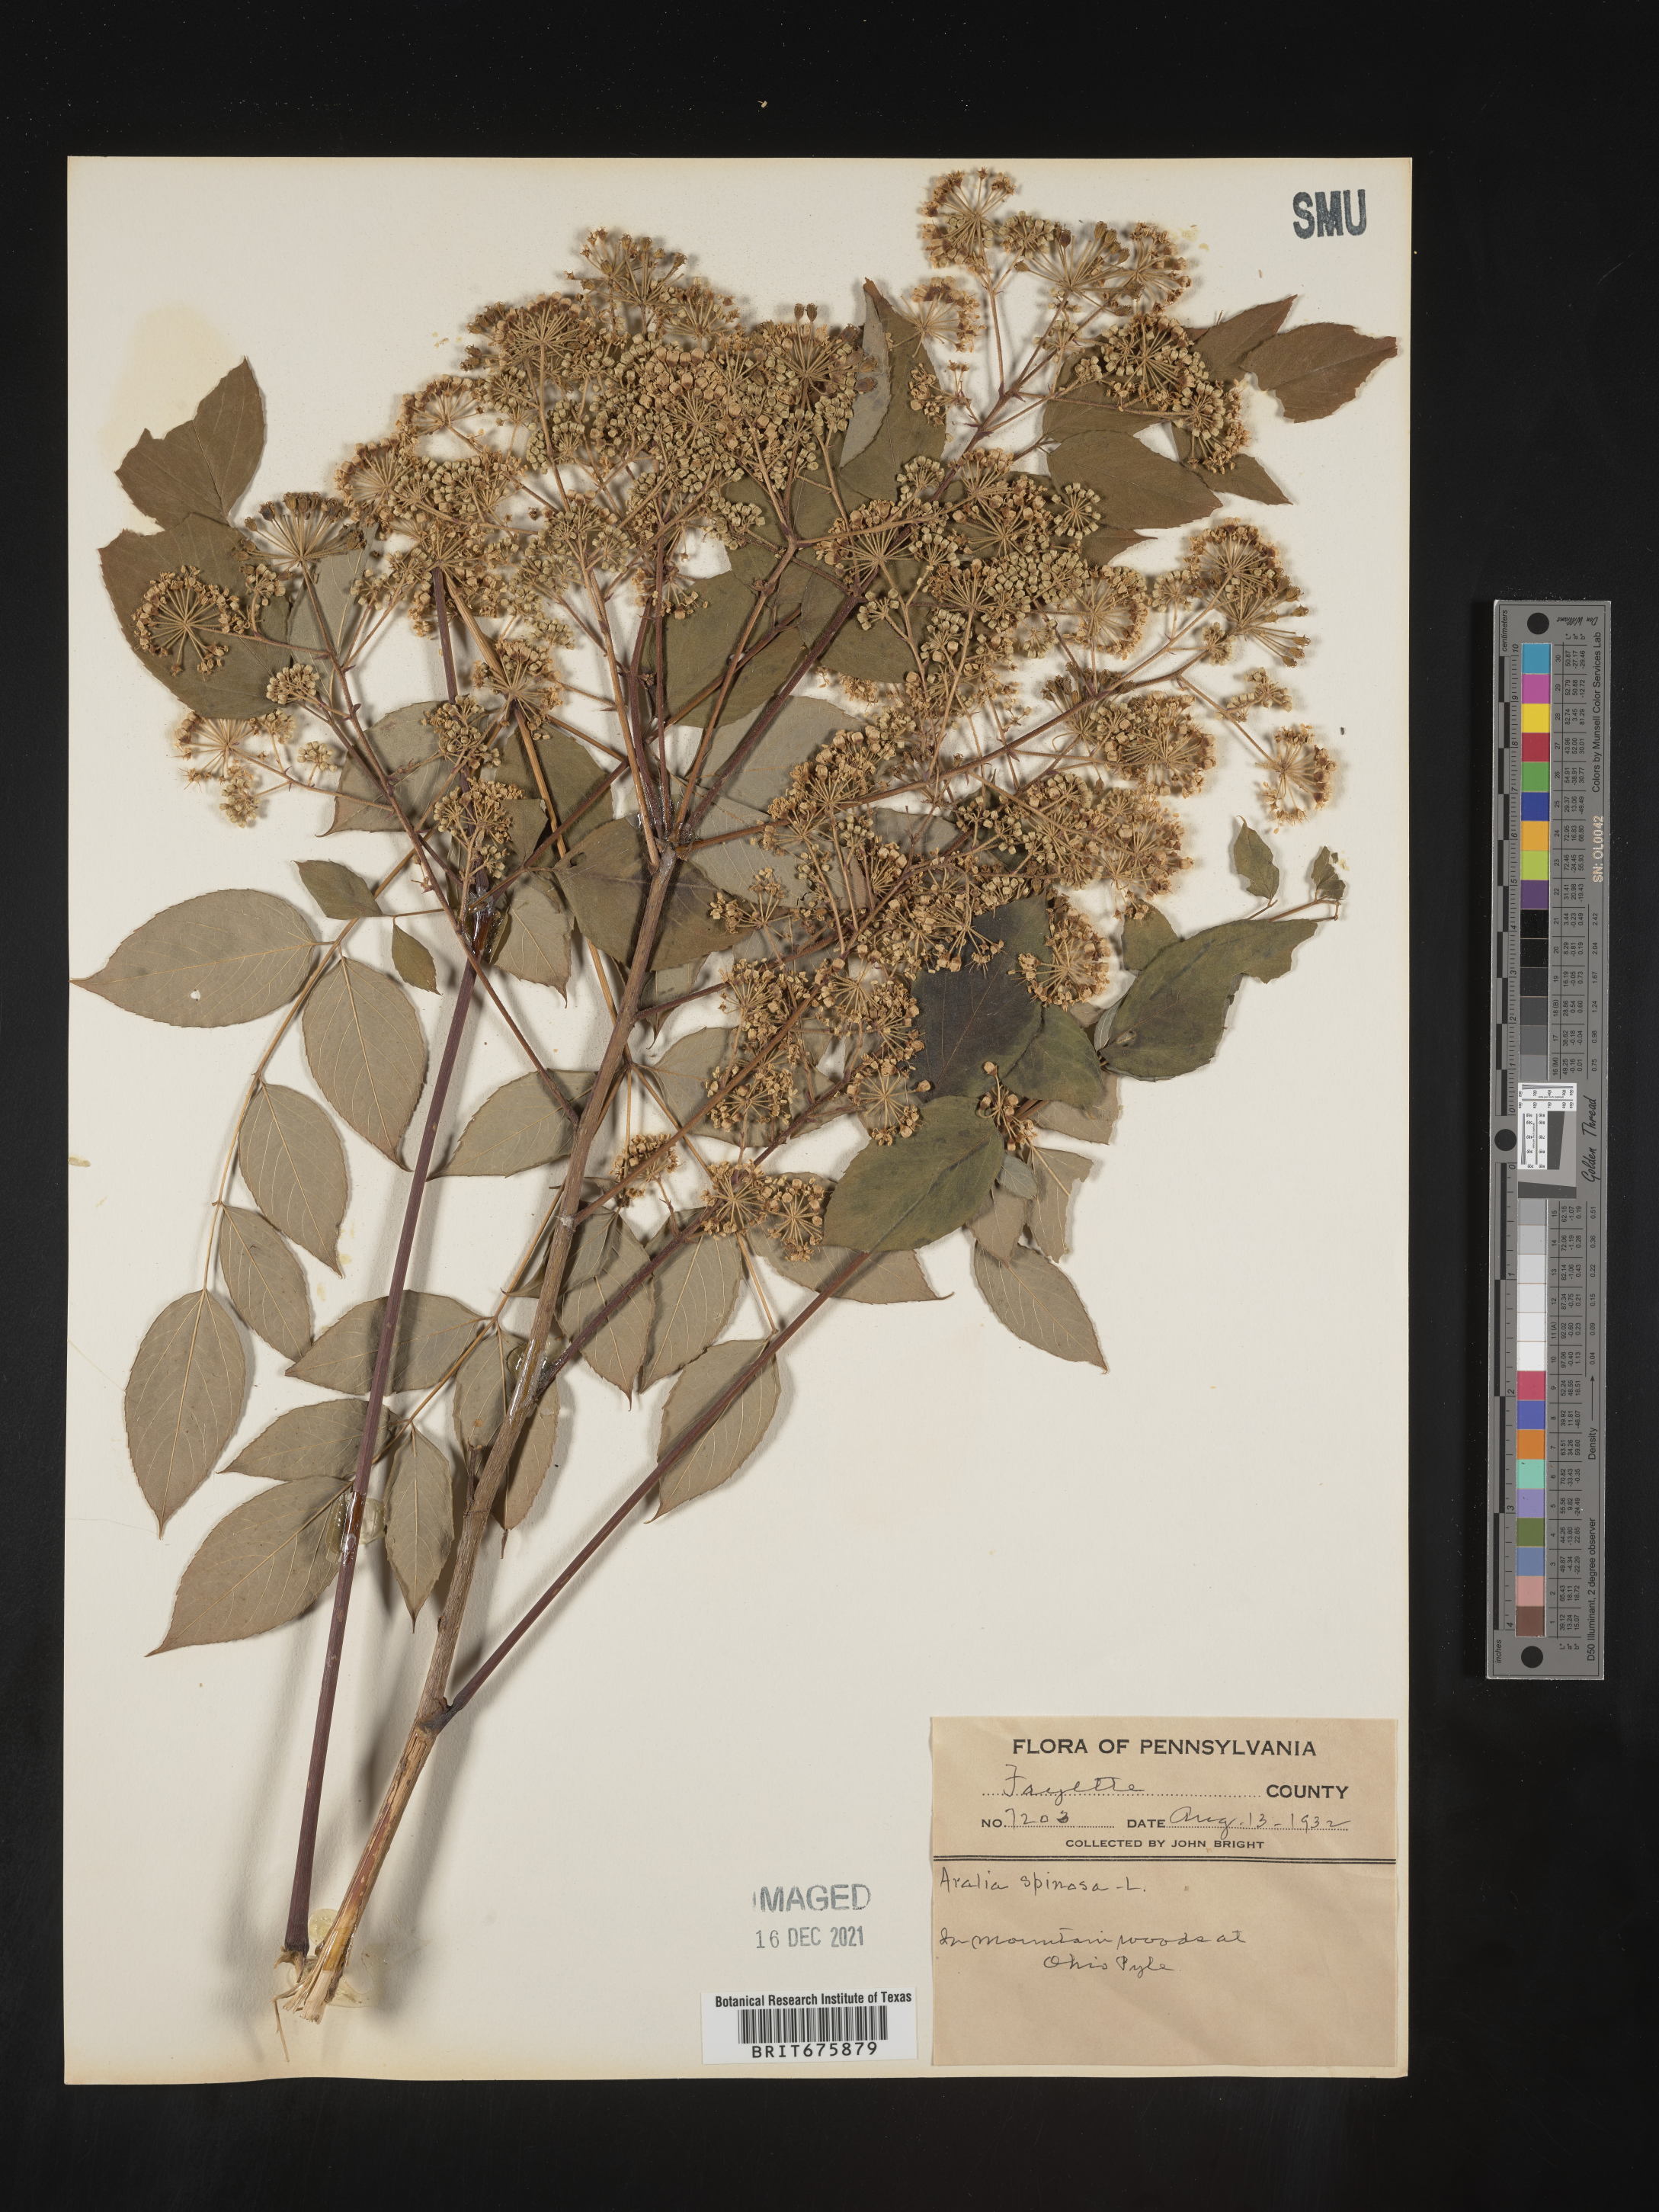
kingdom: Plantae
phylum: Tracheophyta
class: Magnoliopsida
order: Apiales
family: Araliaceae
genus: Aralia
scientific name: Aralia spinosa
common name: Hercules'-club
